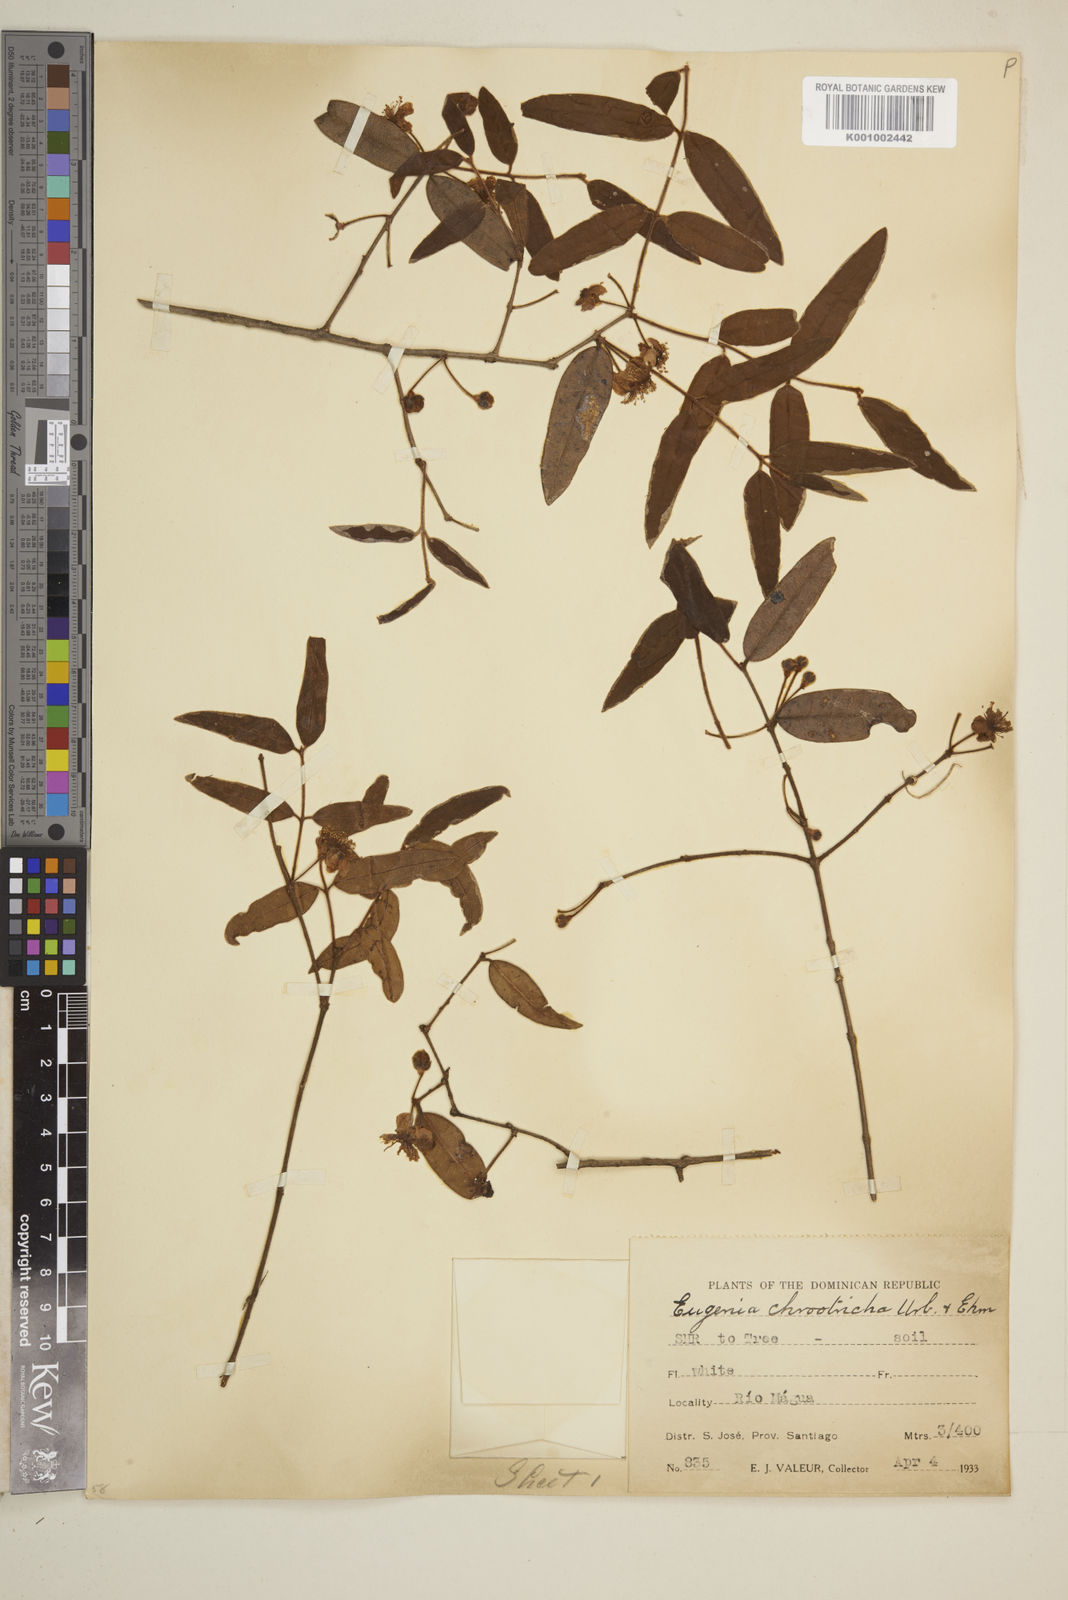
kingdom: Plantae
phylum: Tracheophyta
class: Magnoliopsida
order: Myrtales
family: Myrtaceae
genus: Eugenia
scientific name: Eugenia chrootricha
